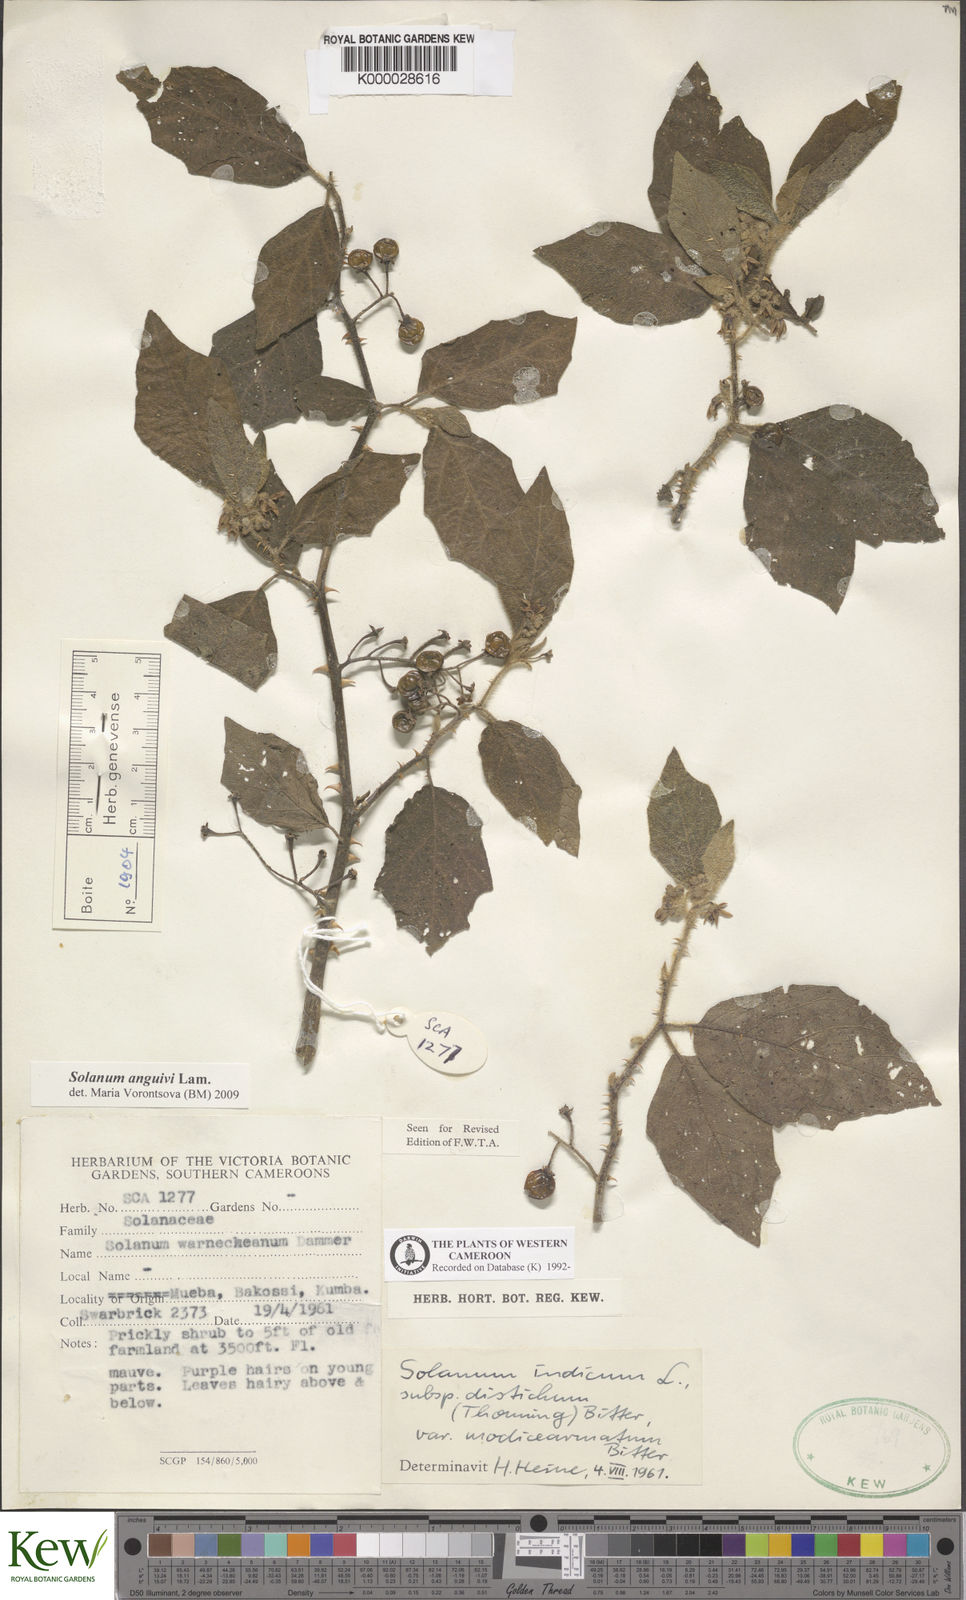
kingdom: Plantae
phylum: Tracheophyta
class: Magnoliopsida
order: Solanales
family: Solanaceae
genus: Solanum
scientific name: Solanum anguivi
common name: Forest bitterberry
